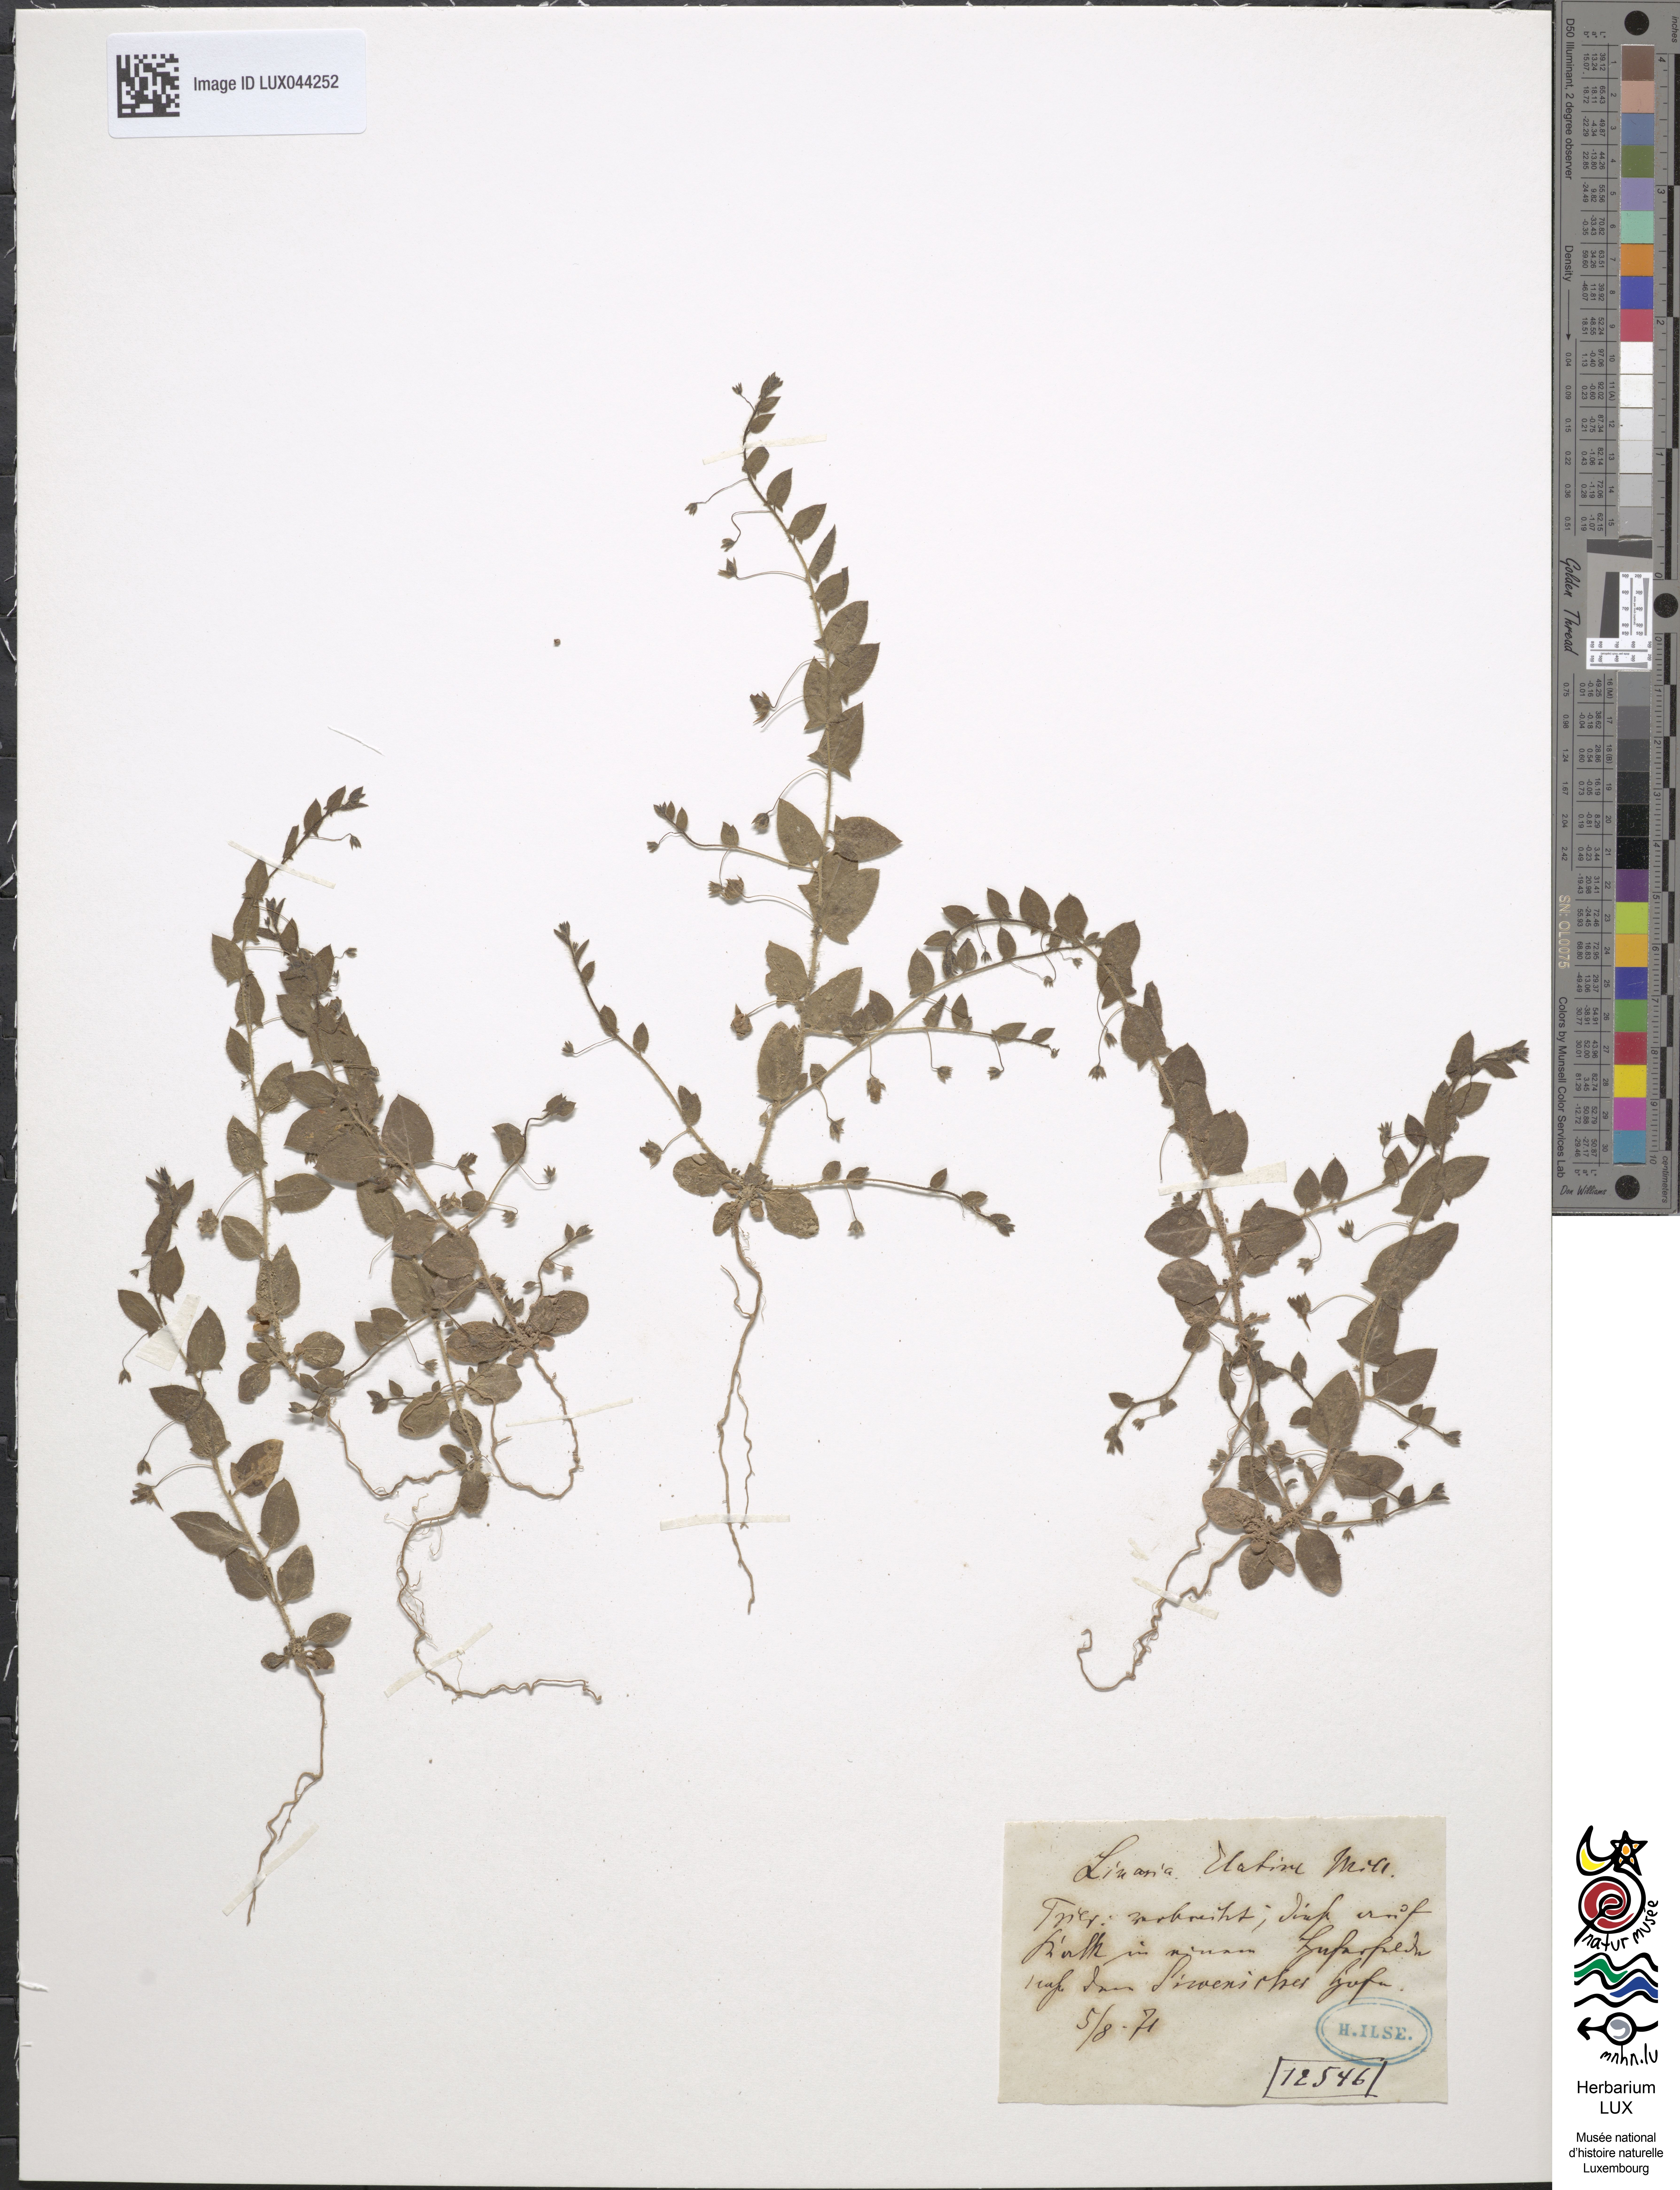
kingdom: Plantae
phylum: Tracheophyta
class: Magnoliopsida
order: Lamiales
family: Plantaginaceae
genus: Kickxia
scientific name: Kickxia elatine
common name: Sharp-leaved fluellen
